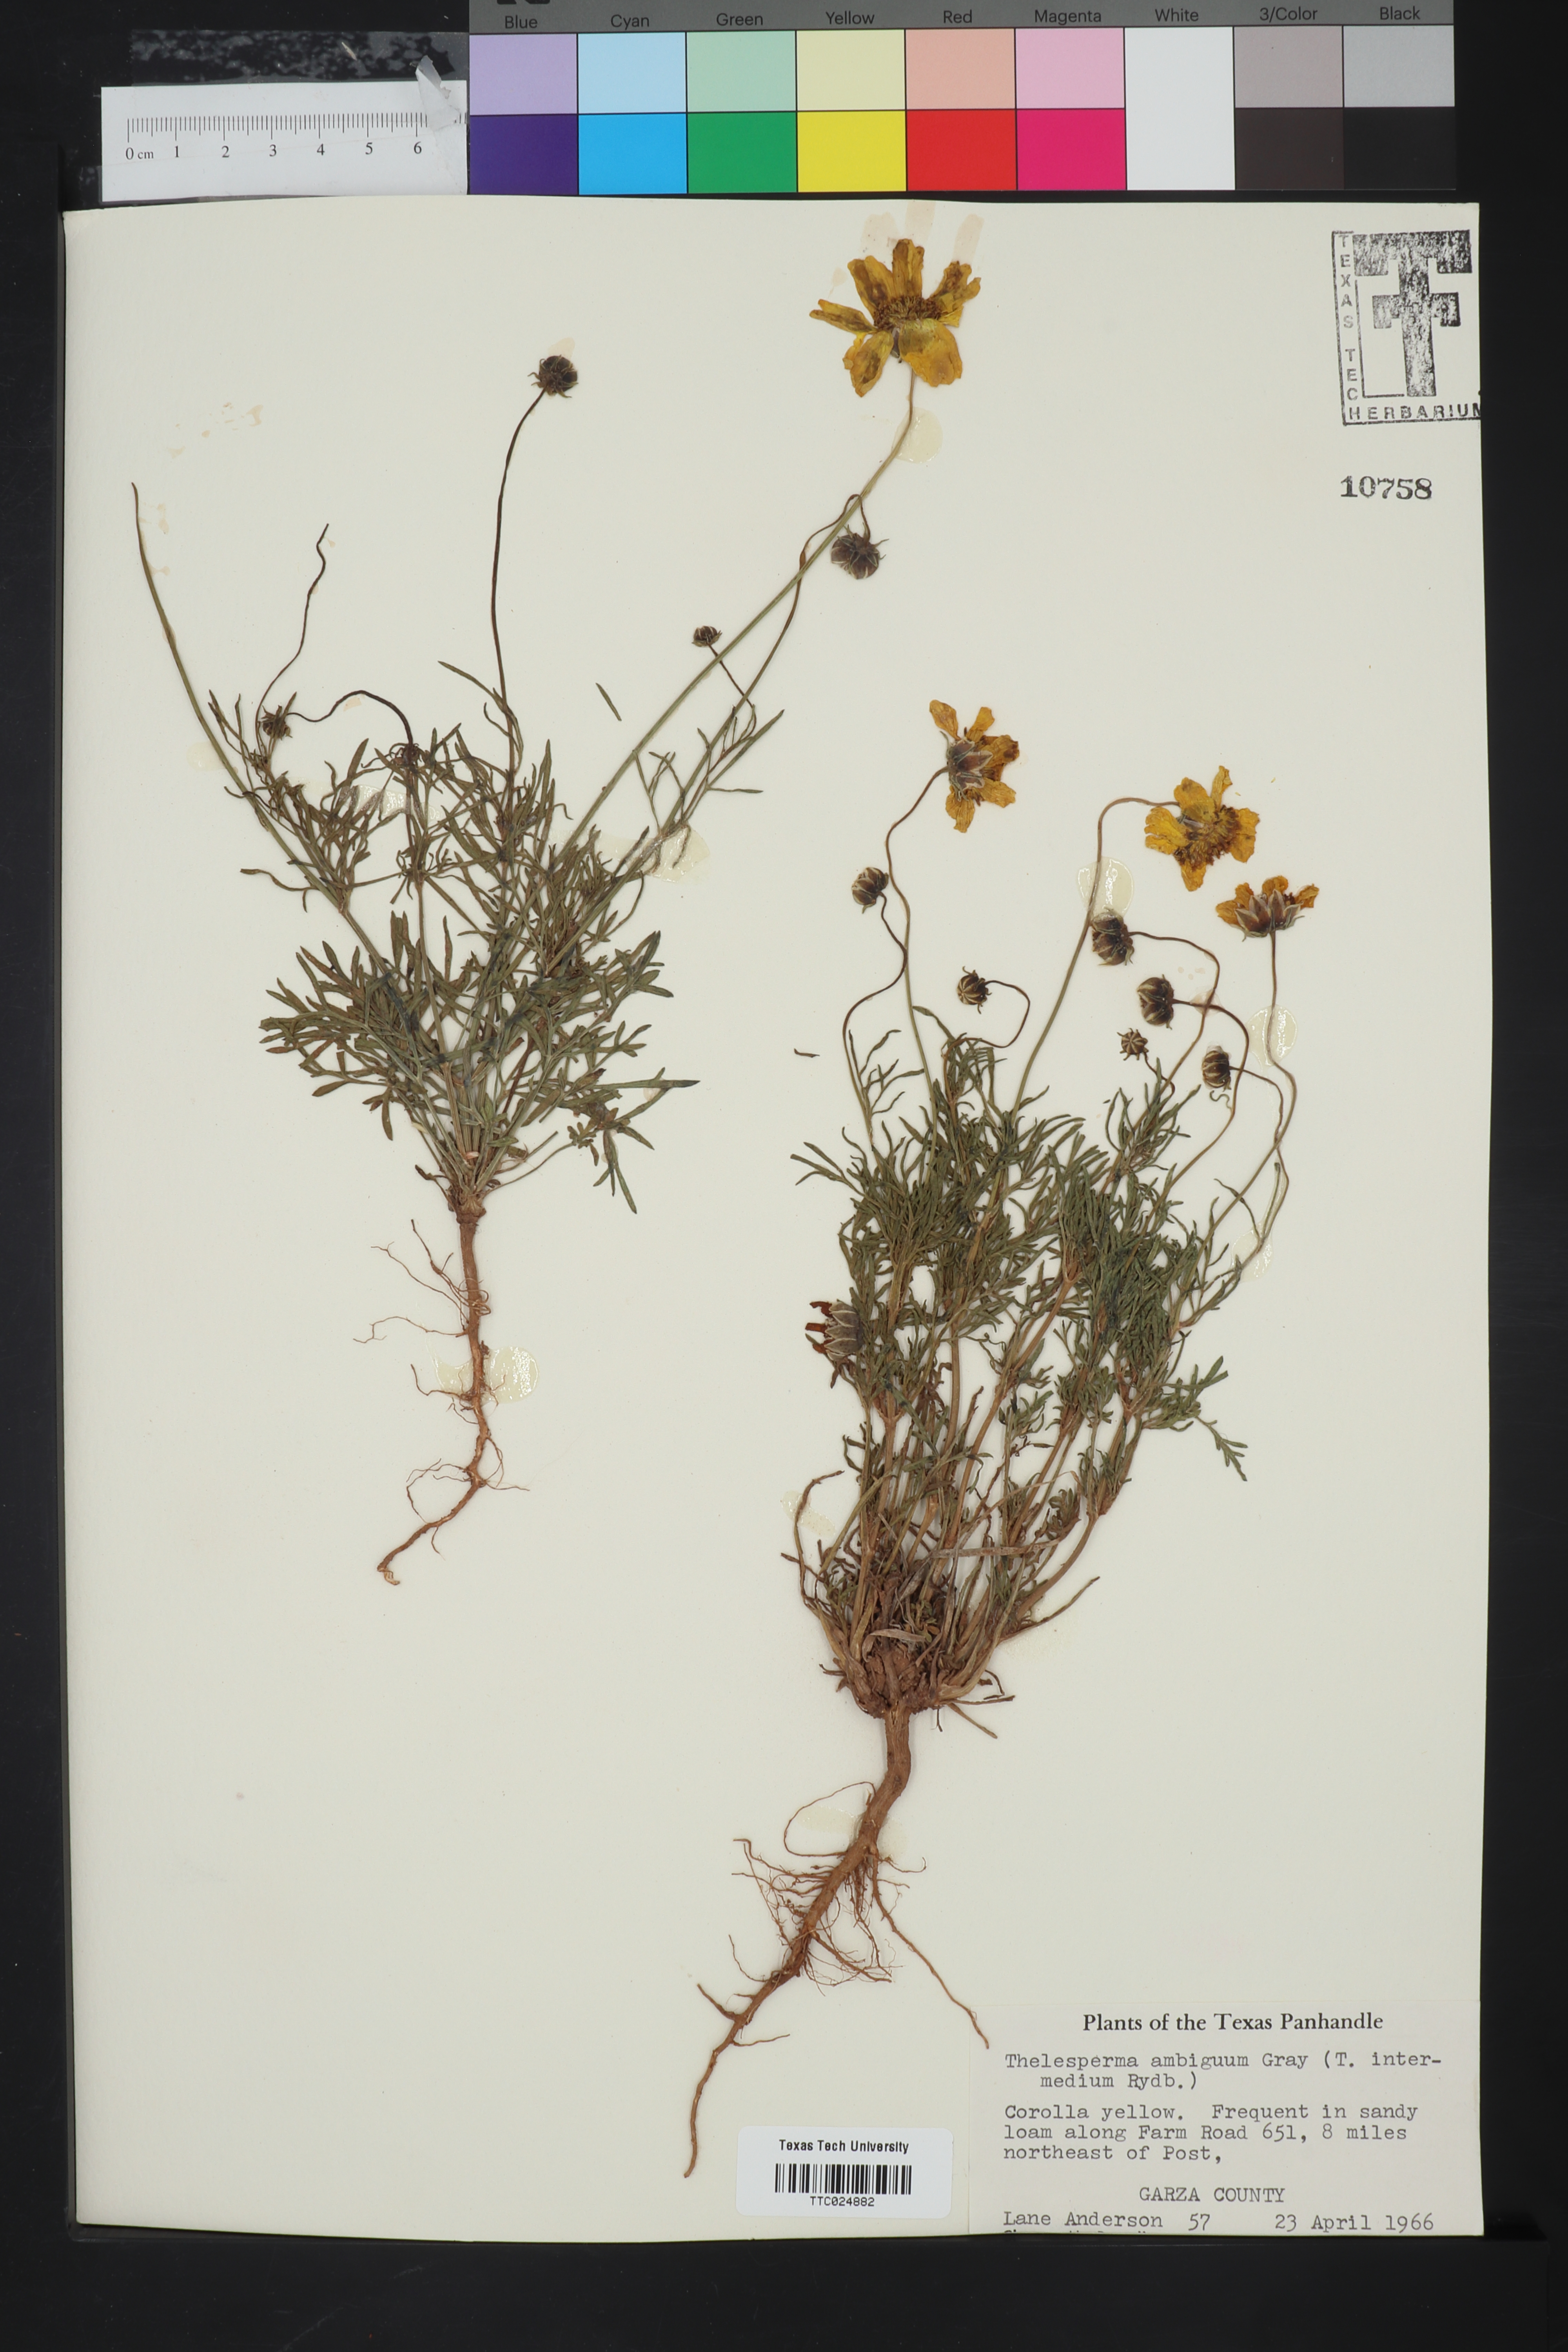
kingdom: Plantae
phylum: Tracheophyta
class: Magnoliopsida
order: Asterales
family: Asteraceae
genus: Thelesperma
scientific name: Thelesperma ambiguum
